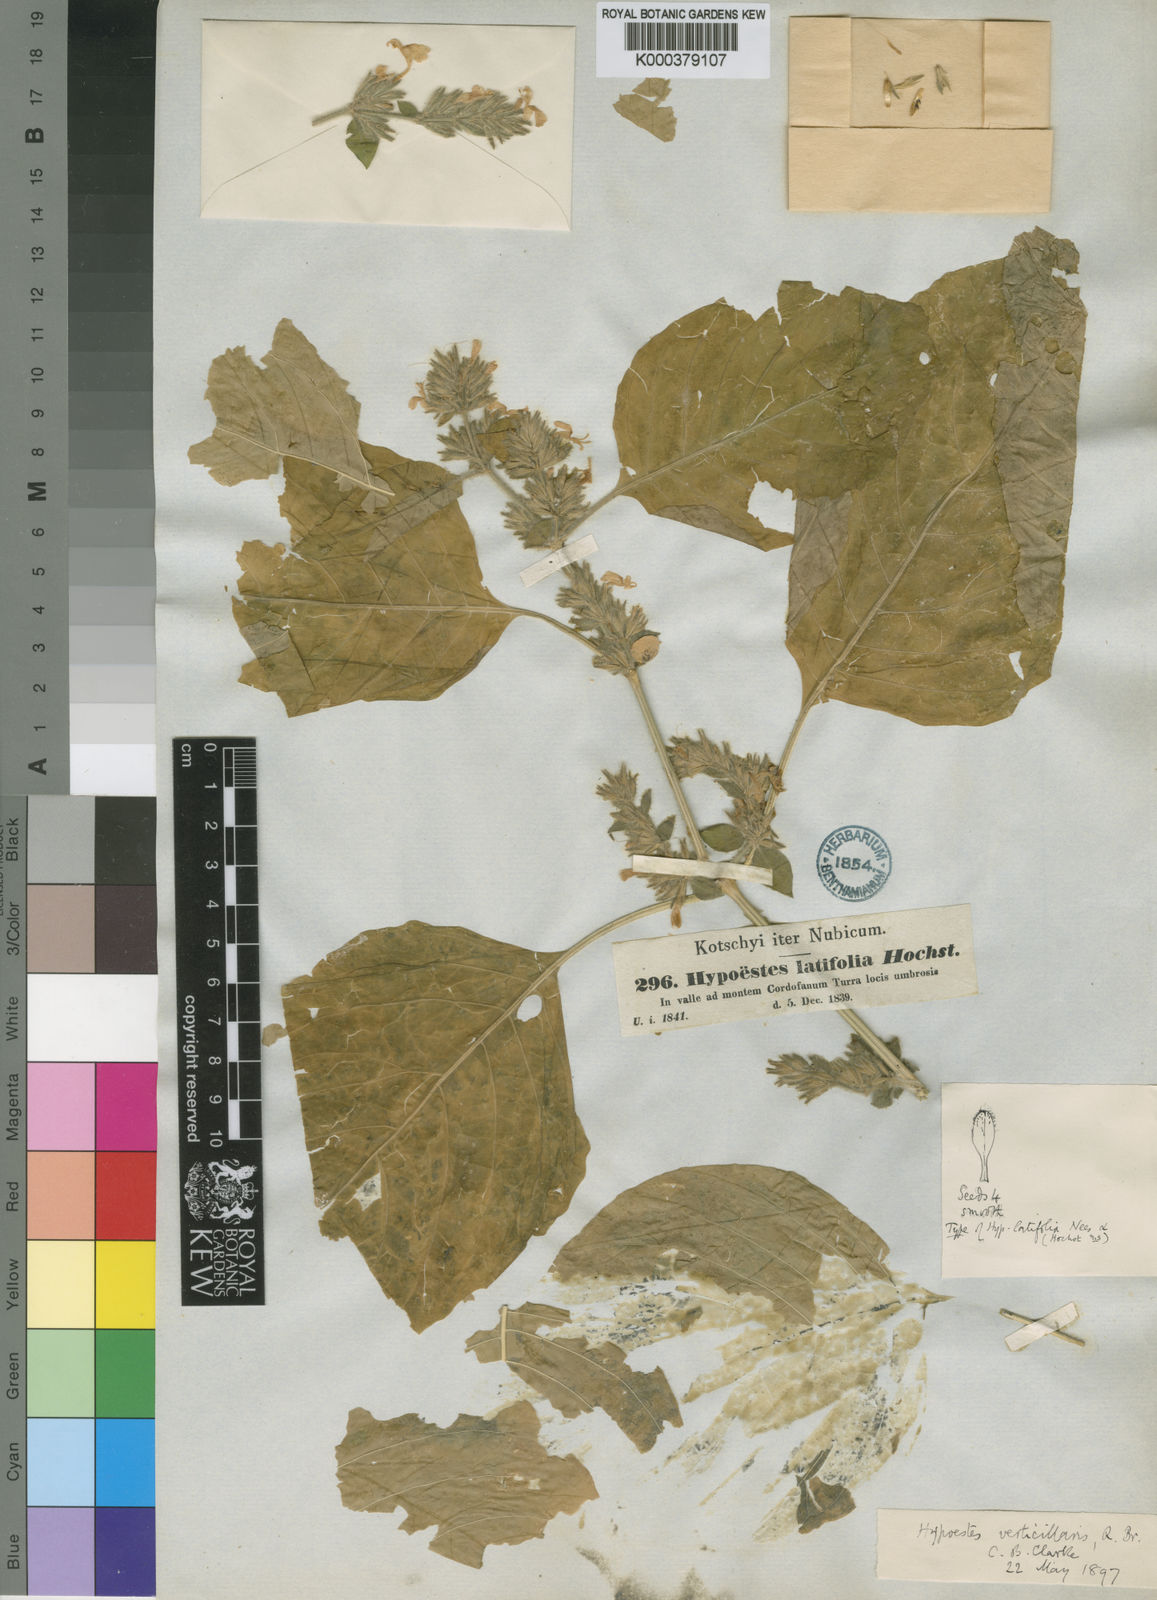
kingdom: Plantae
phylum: Tracheophyta
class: Magnoliopsida
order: Lamiales
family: Acanthaceae
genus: Hypoestes
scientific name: Hypoestes
